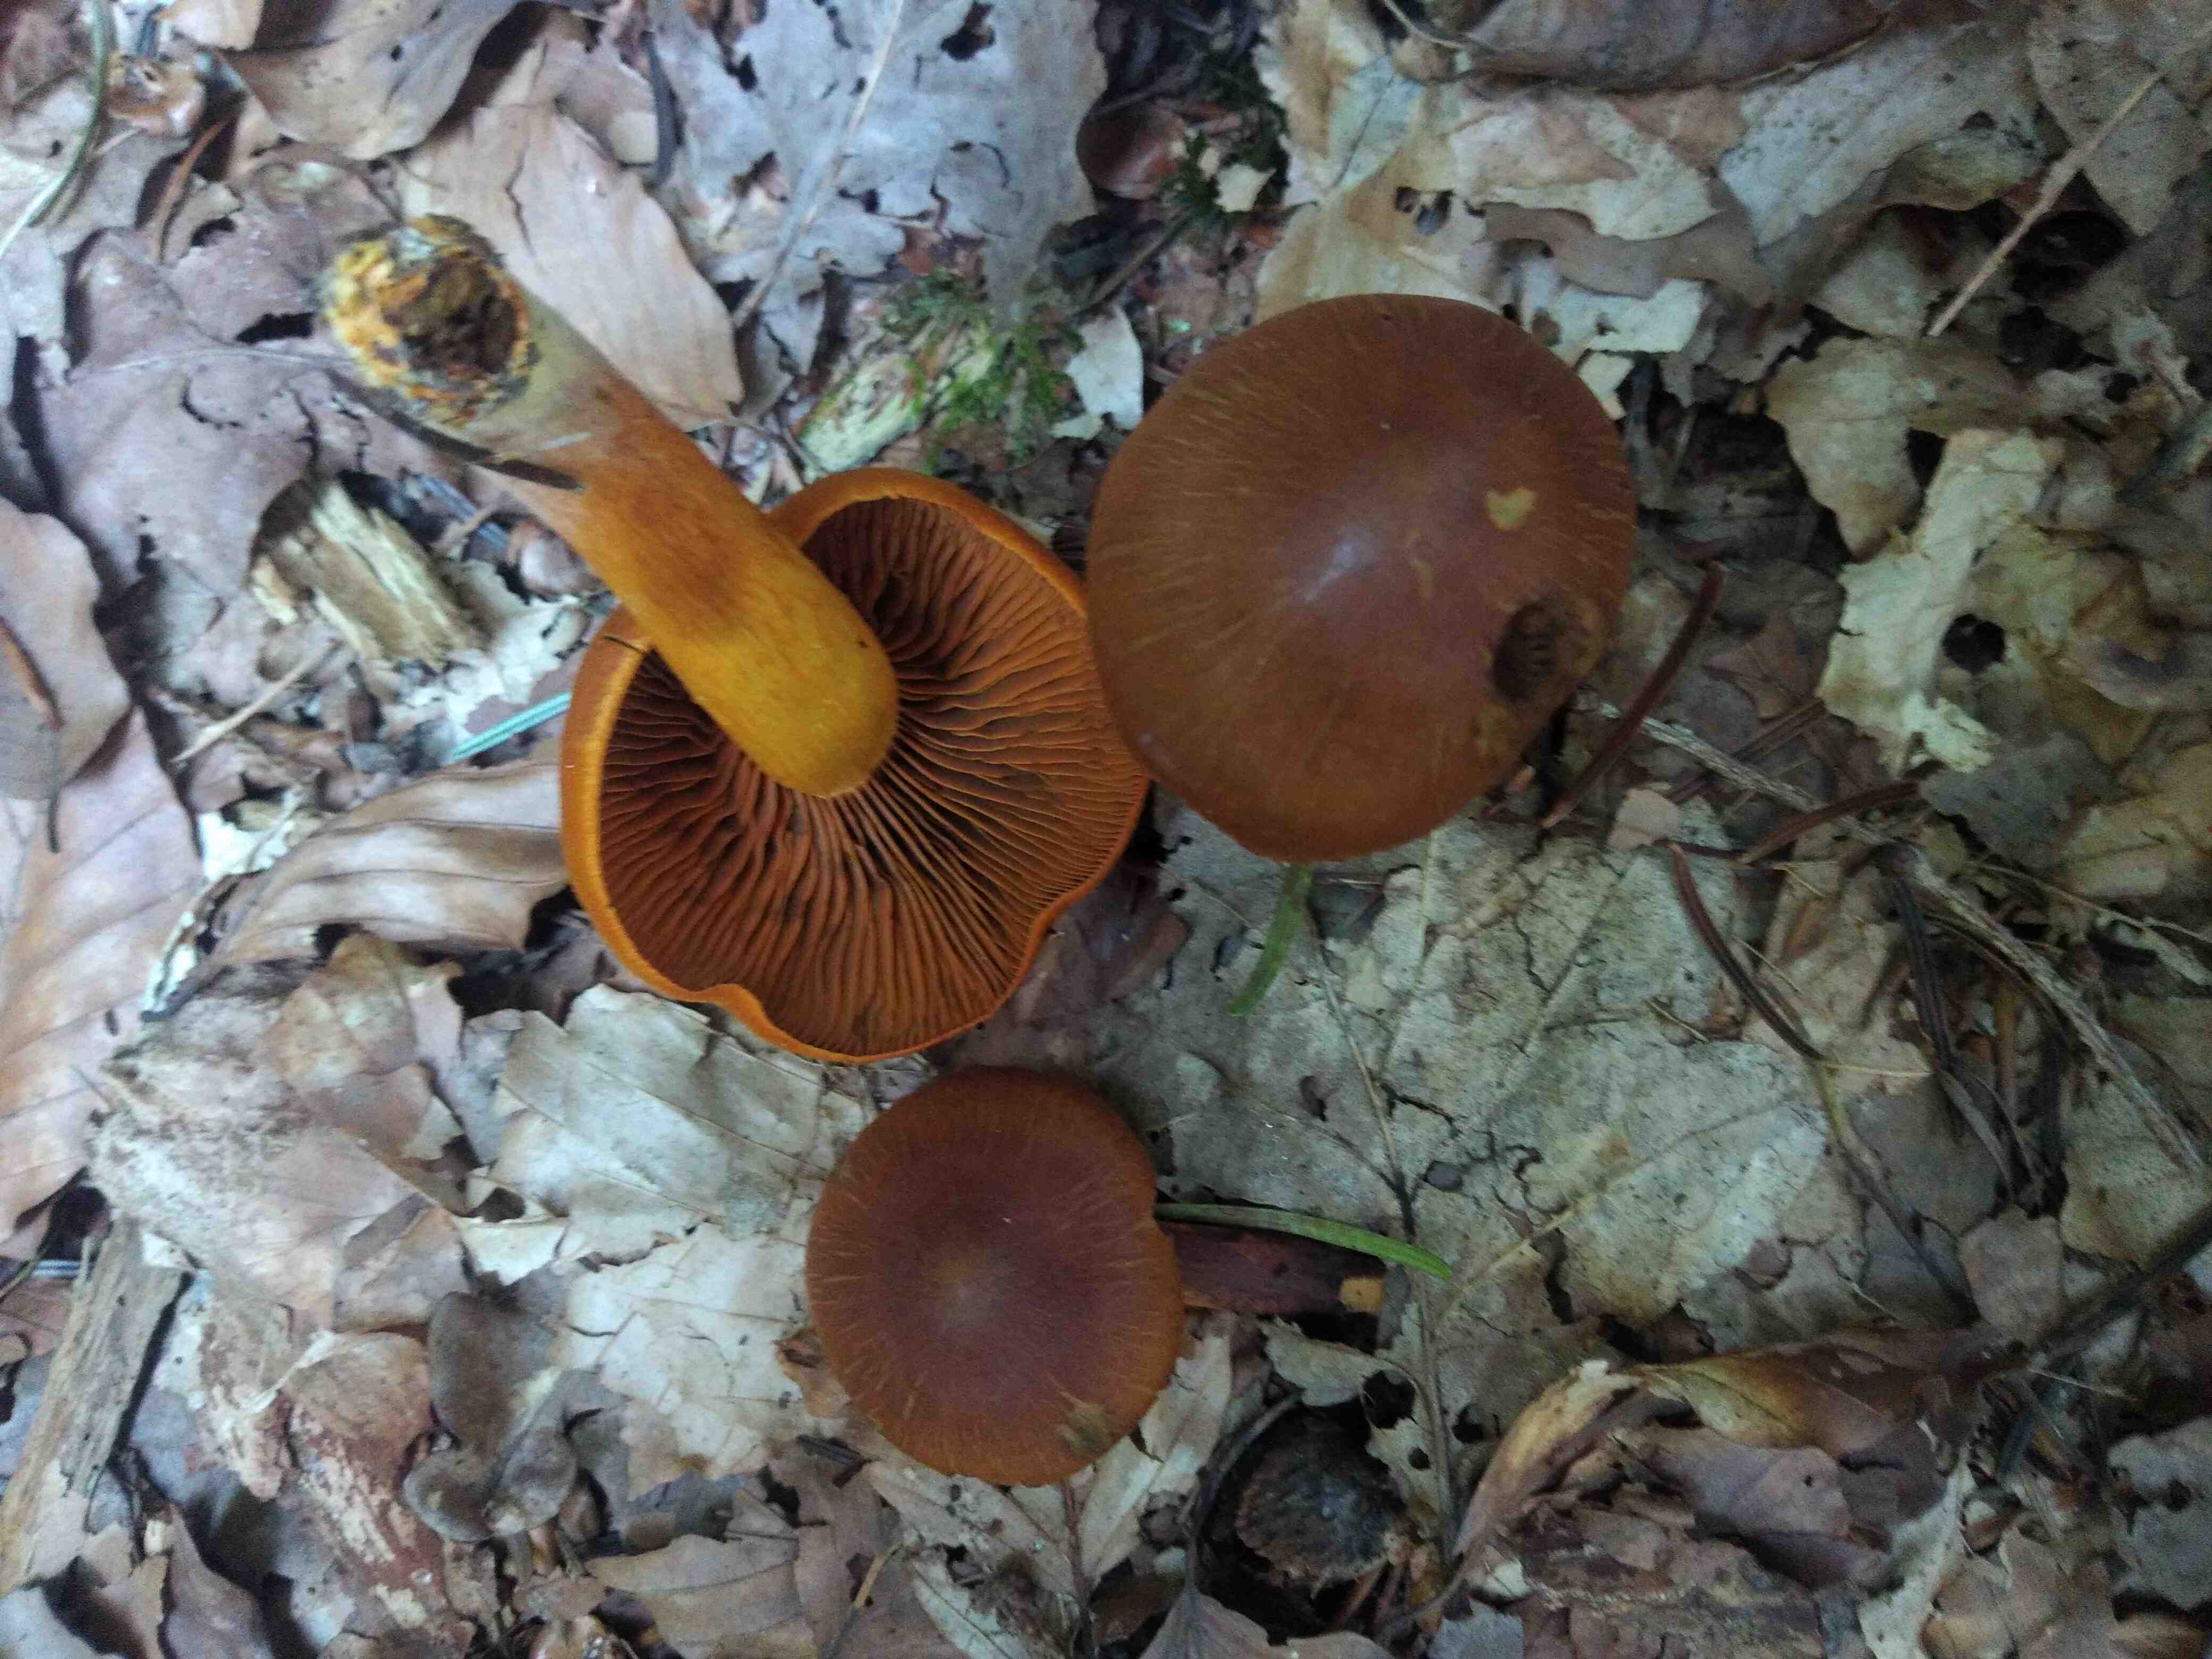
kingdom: Fungi
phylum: Basidiomycota
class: Agaricomycetes
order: Agaricales
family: Cortinariaceae
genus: Cortinarius
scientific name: Cortinarius malicorius
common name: grønkødet slørhat
